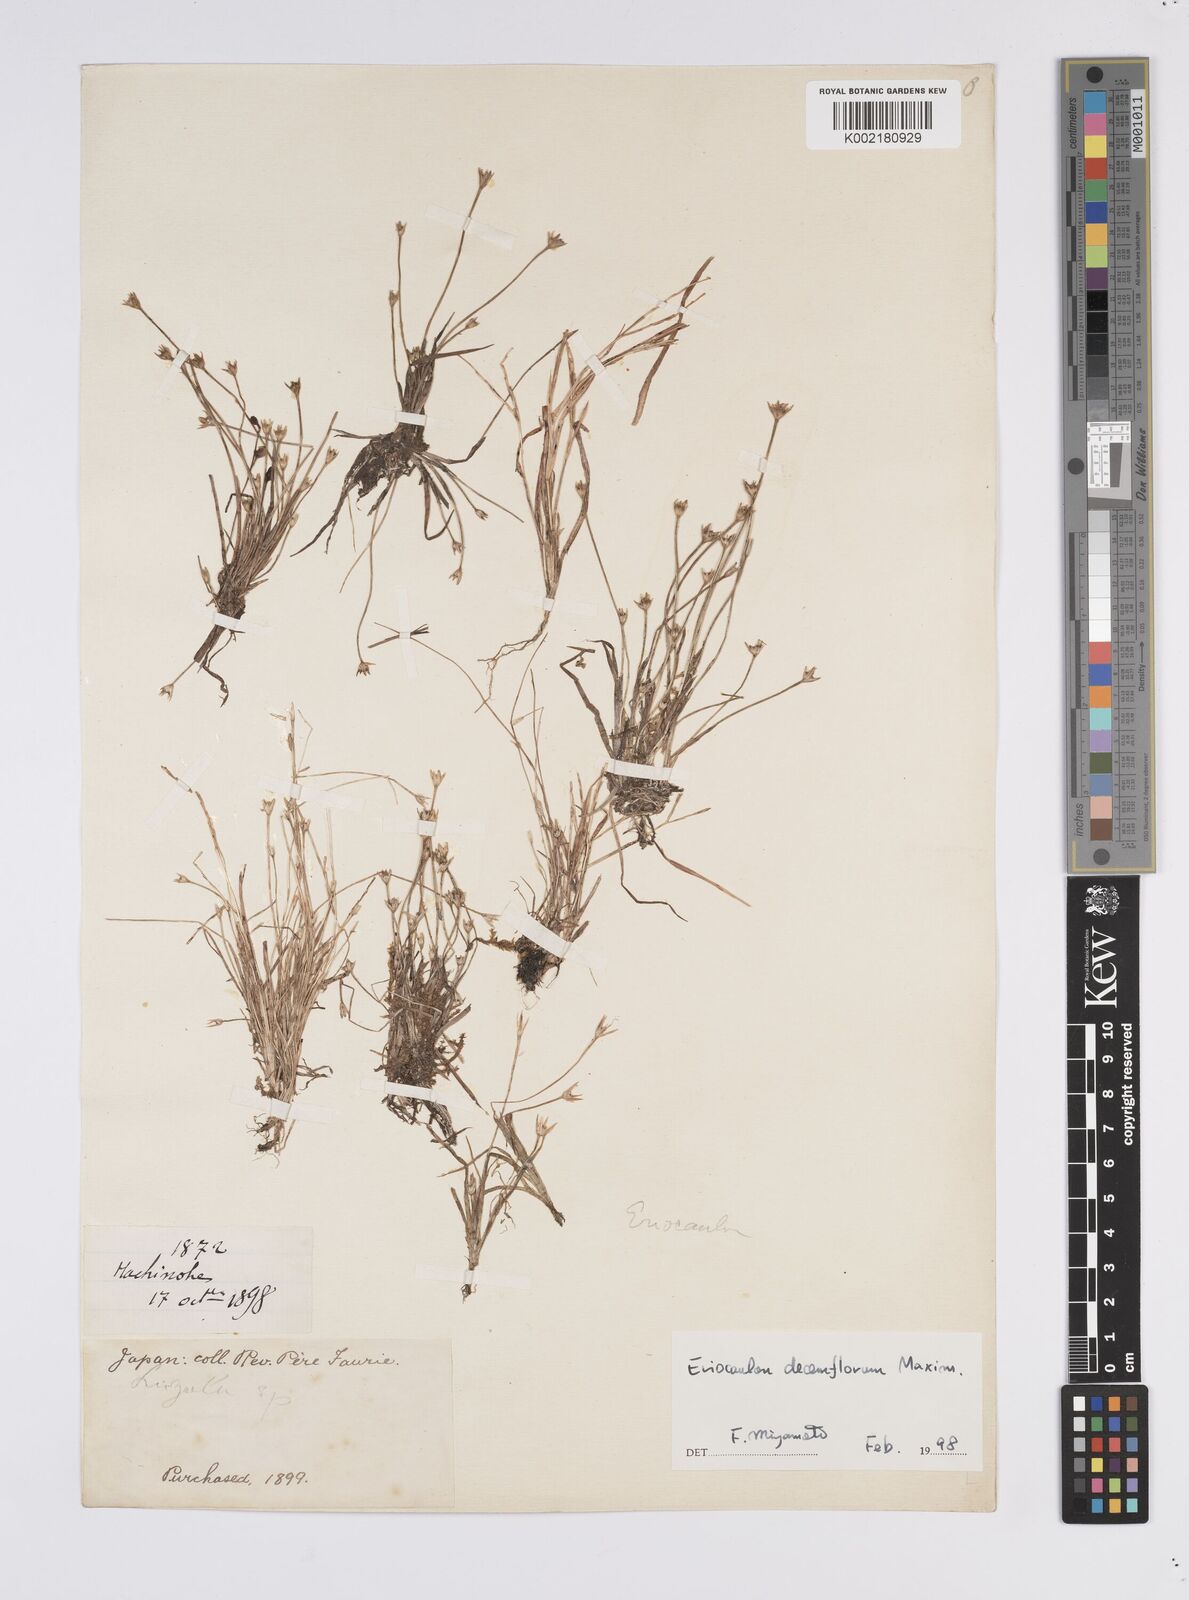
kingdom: Plantae
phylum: Tracheophyta
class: Liliopsida
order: Poales
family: Eriocaulaceae
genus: Eriocaulon
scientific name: Eriocaulon decemflorum
